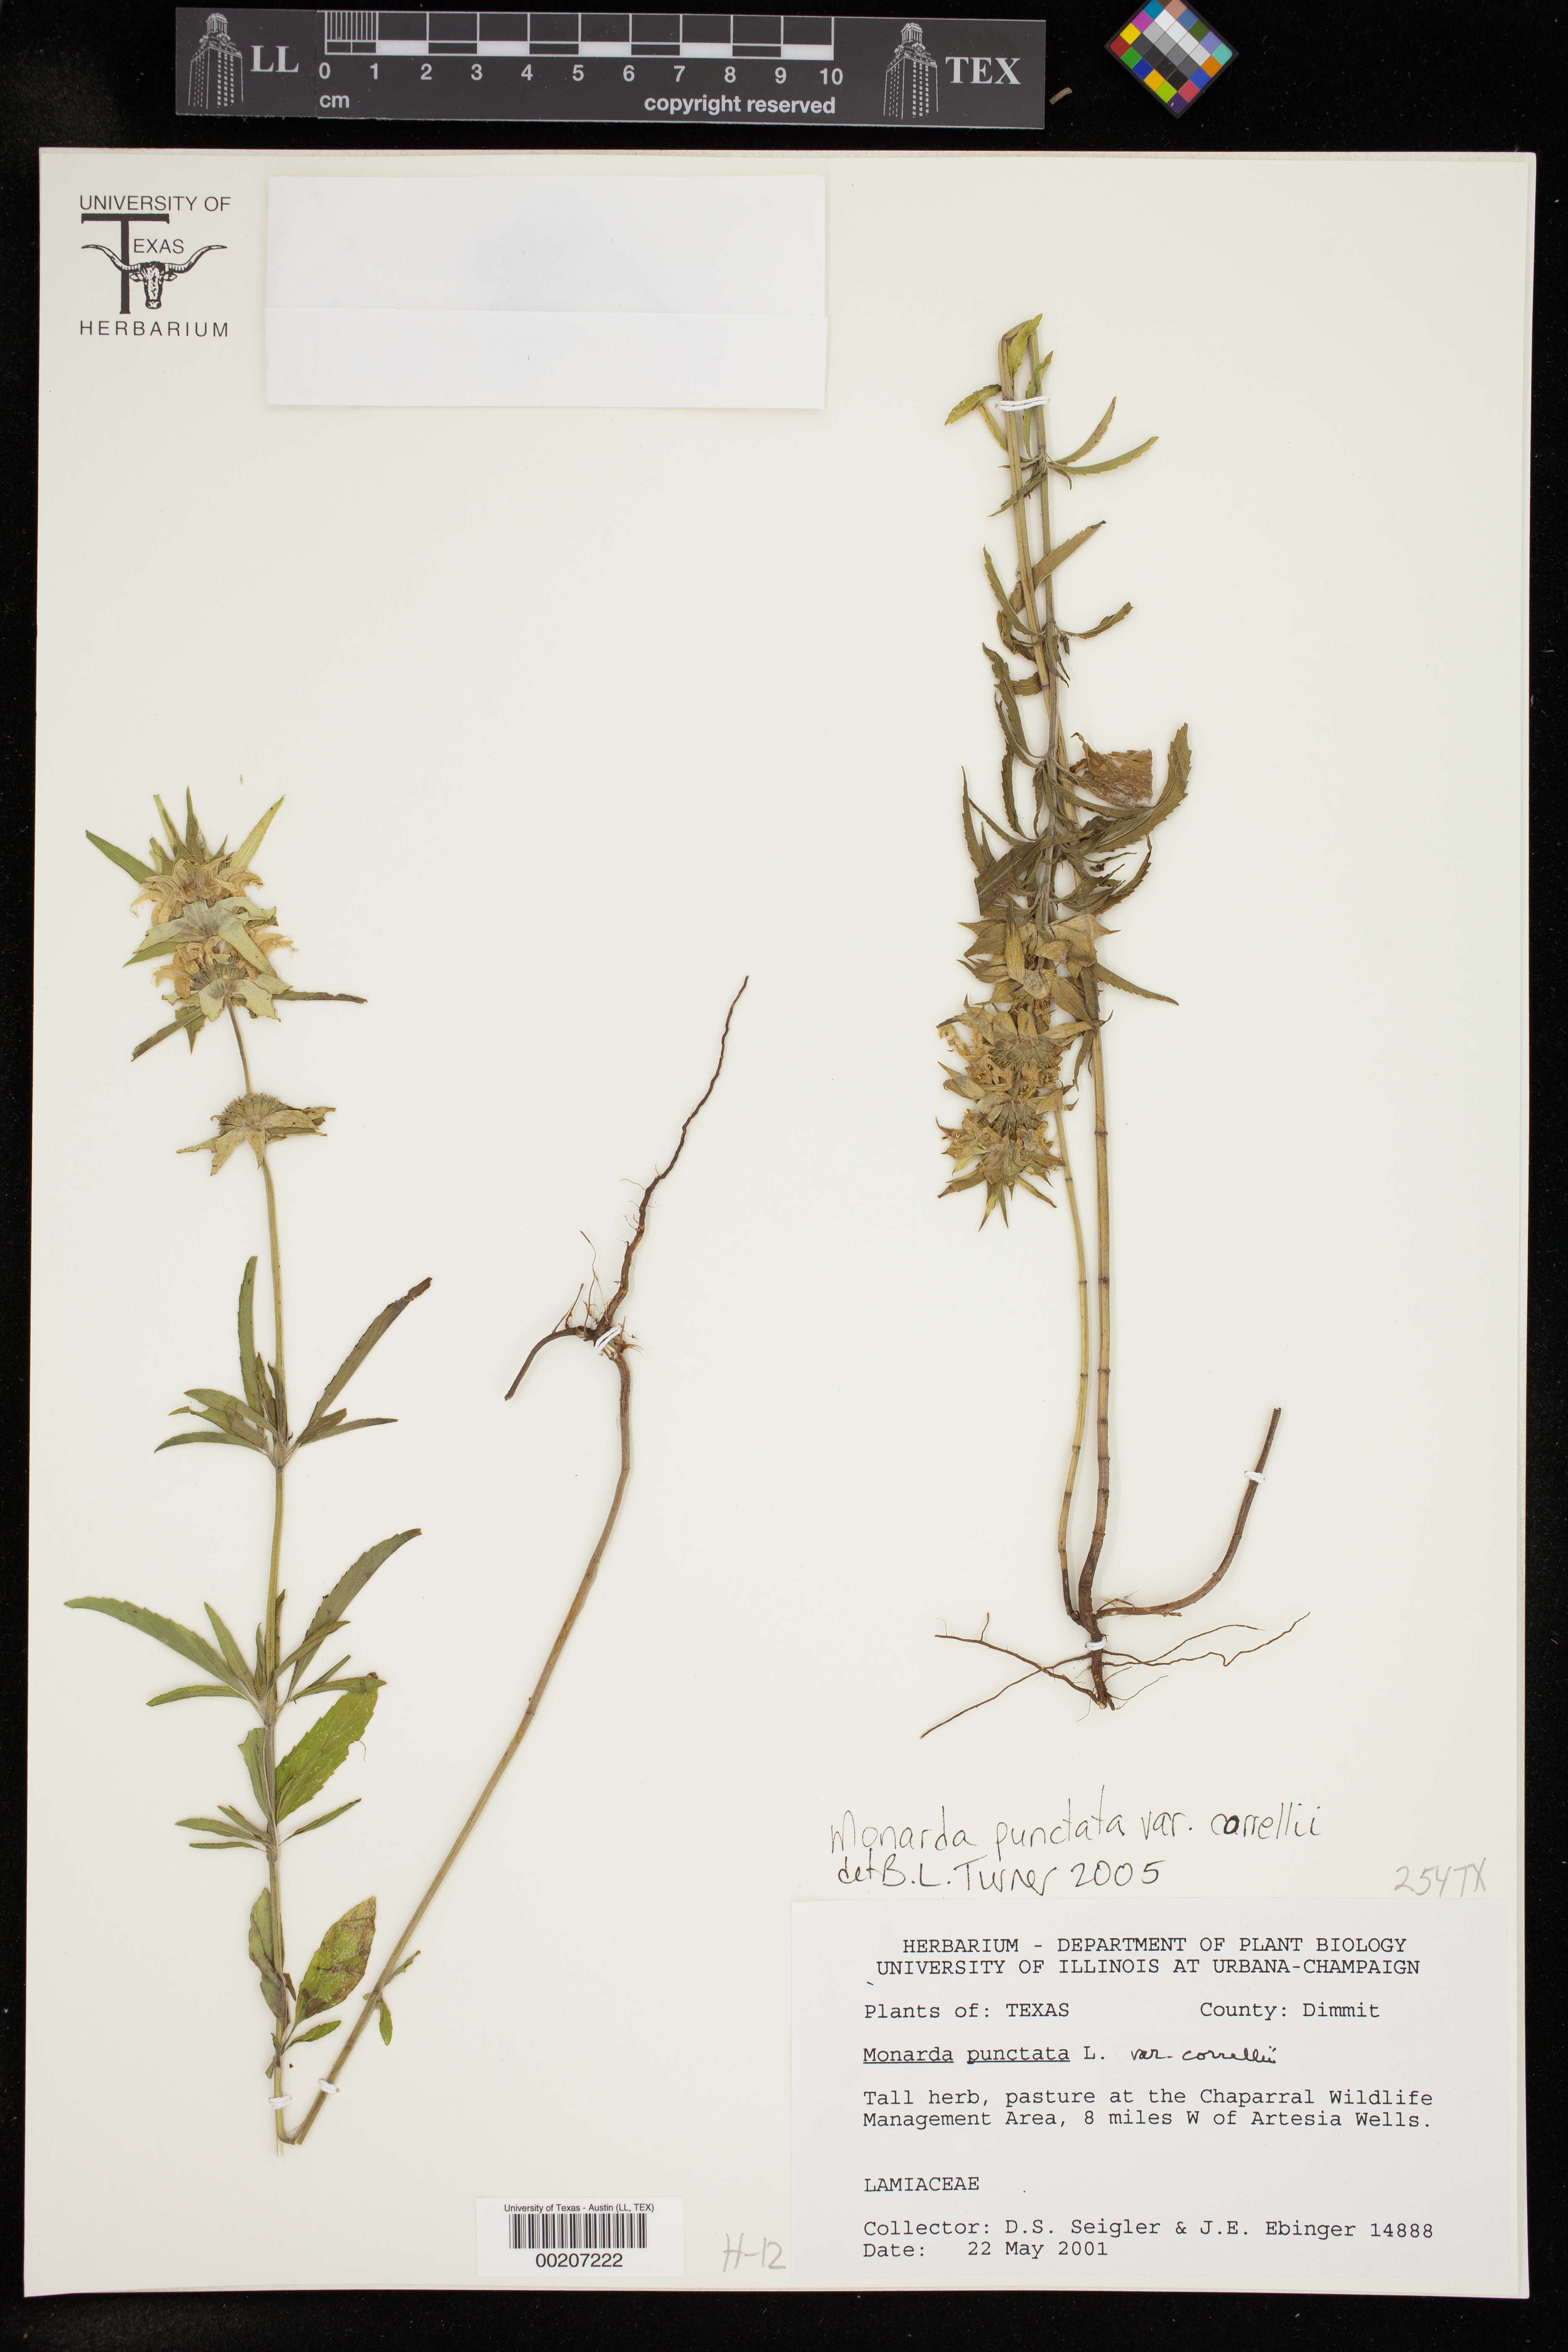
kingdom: Plantae
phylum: Tracheophyta
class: Magnoliopsida
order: Lamiales
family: Lamiaceae
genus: Monarda
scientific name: Monarda punctata
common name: Dotted monarda
